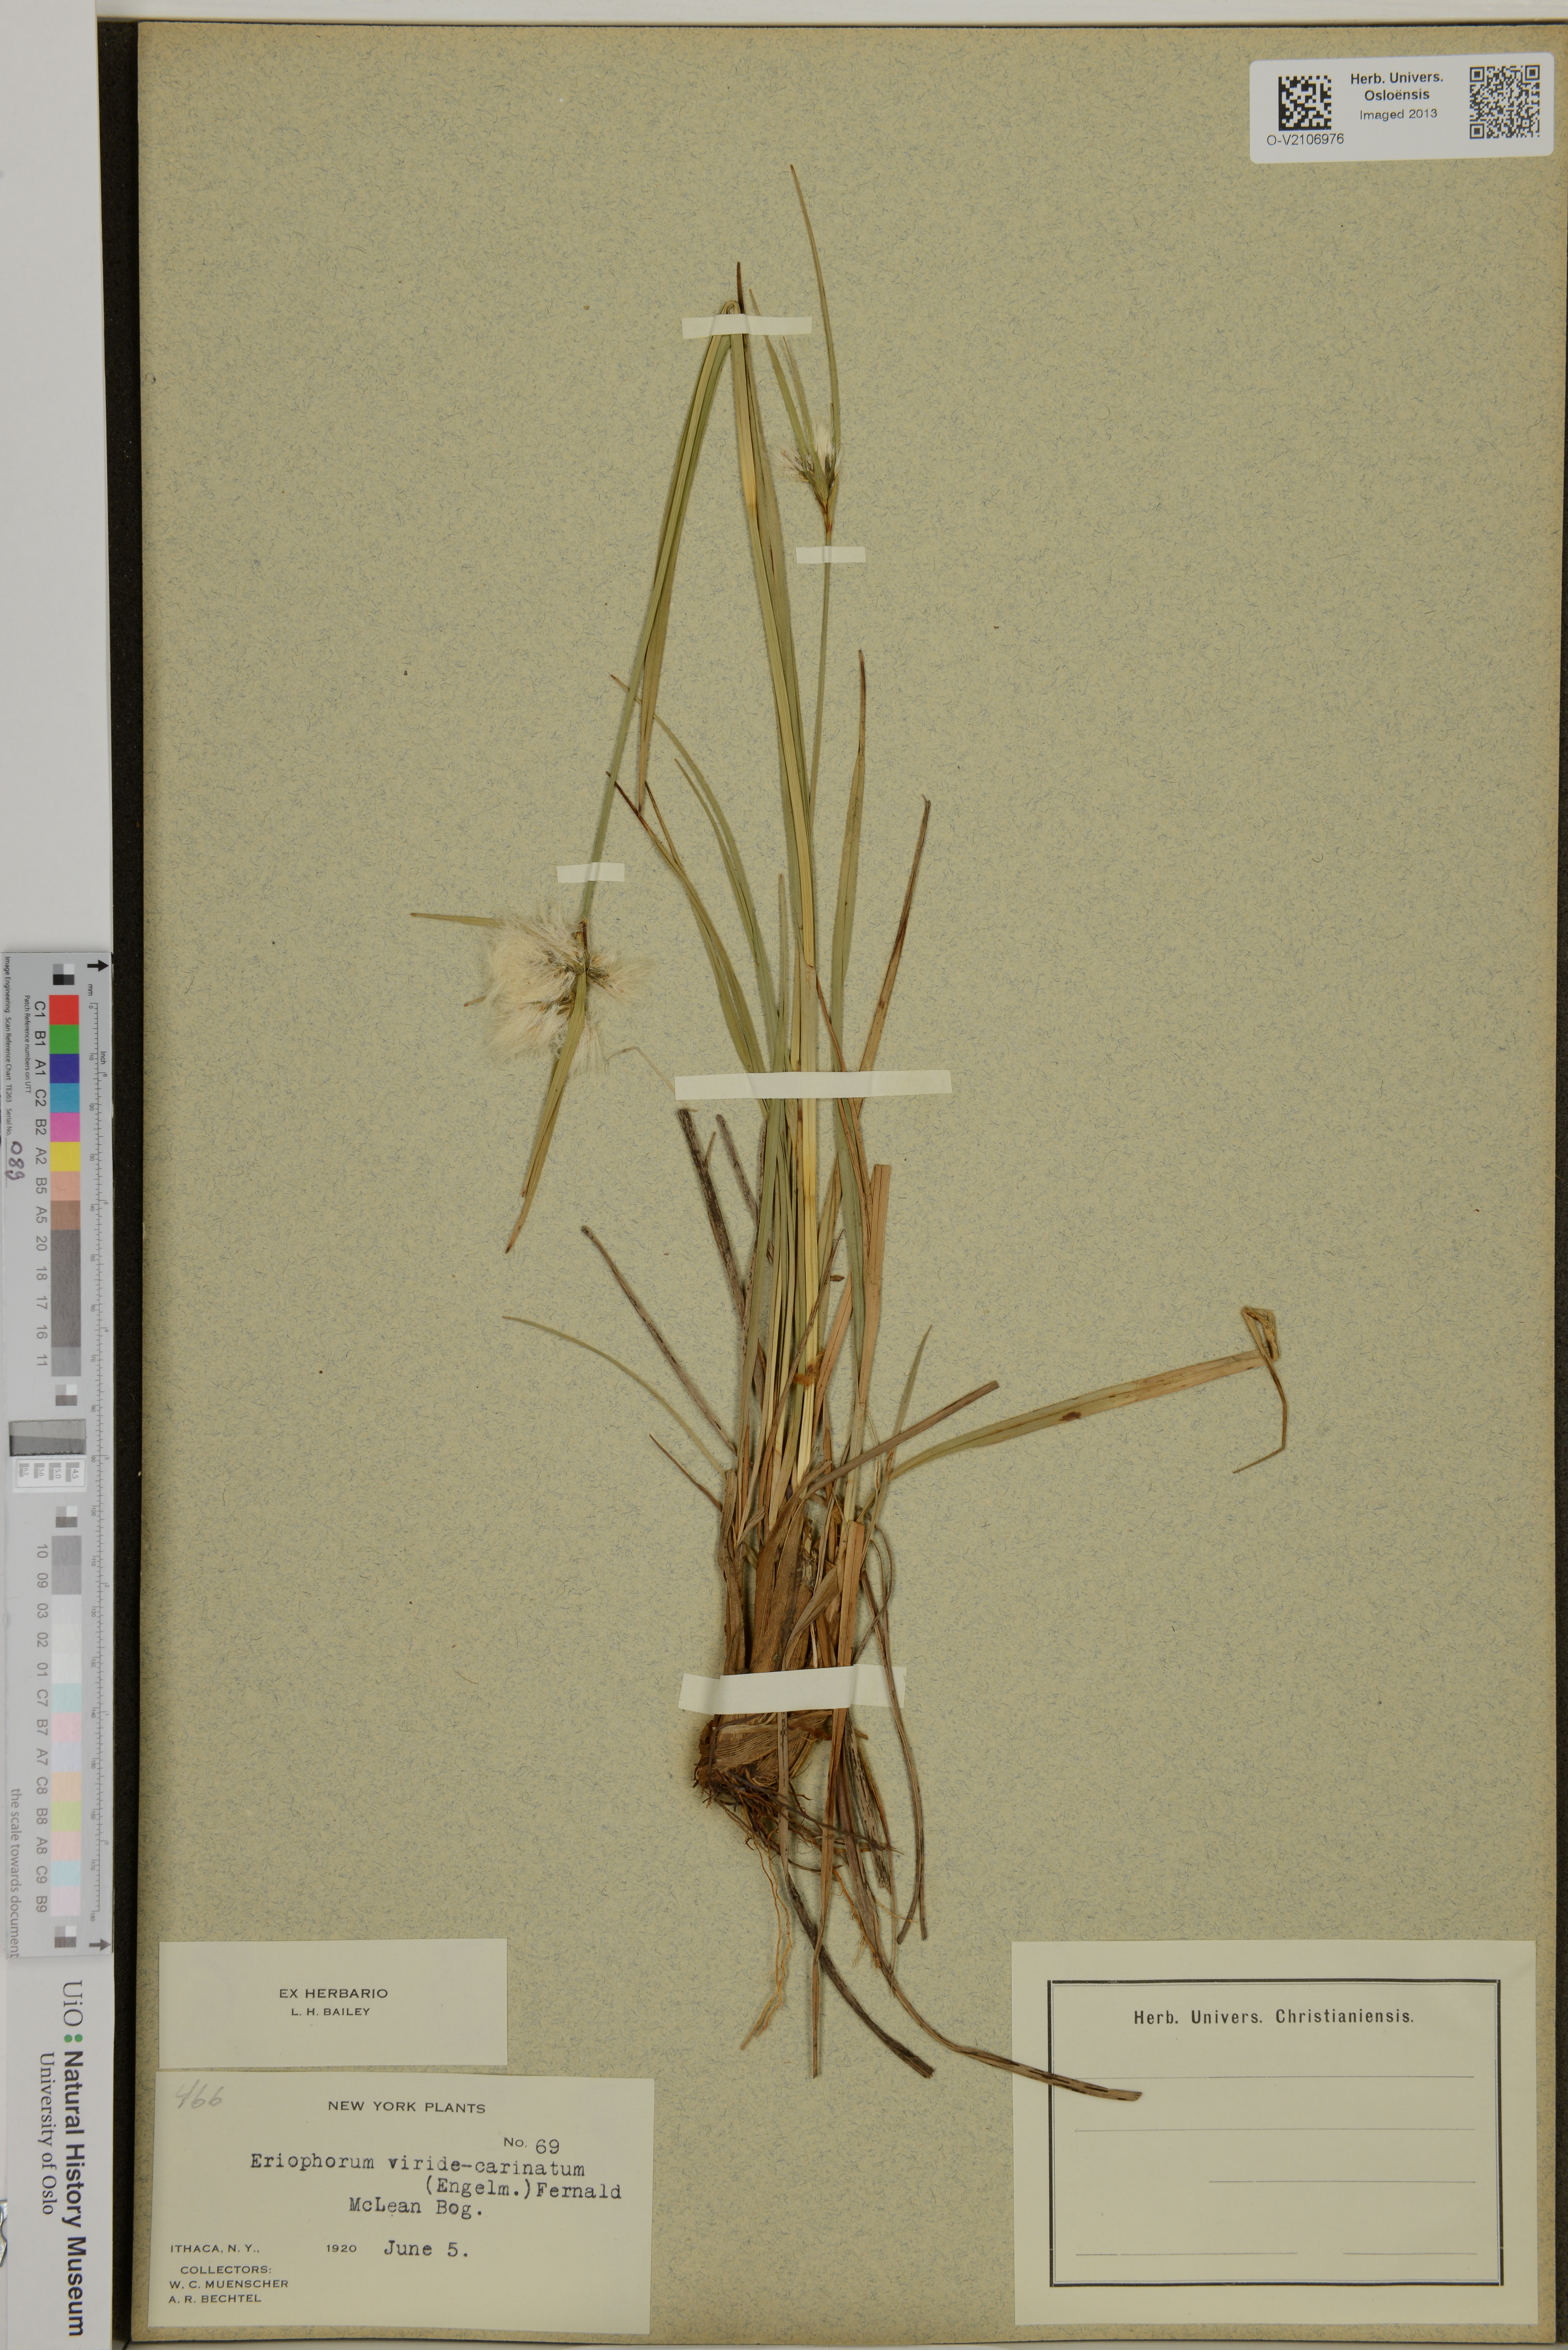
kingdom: Plantae
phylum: Tracheophyta
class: Liliopsida
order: Poales
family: Cyperaceae
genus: Eriophorum
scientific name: Eriophorum viridicarinatum
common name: Green-keeled cottongrass
